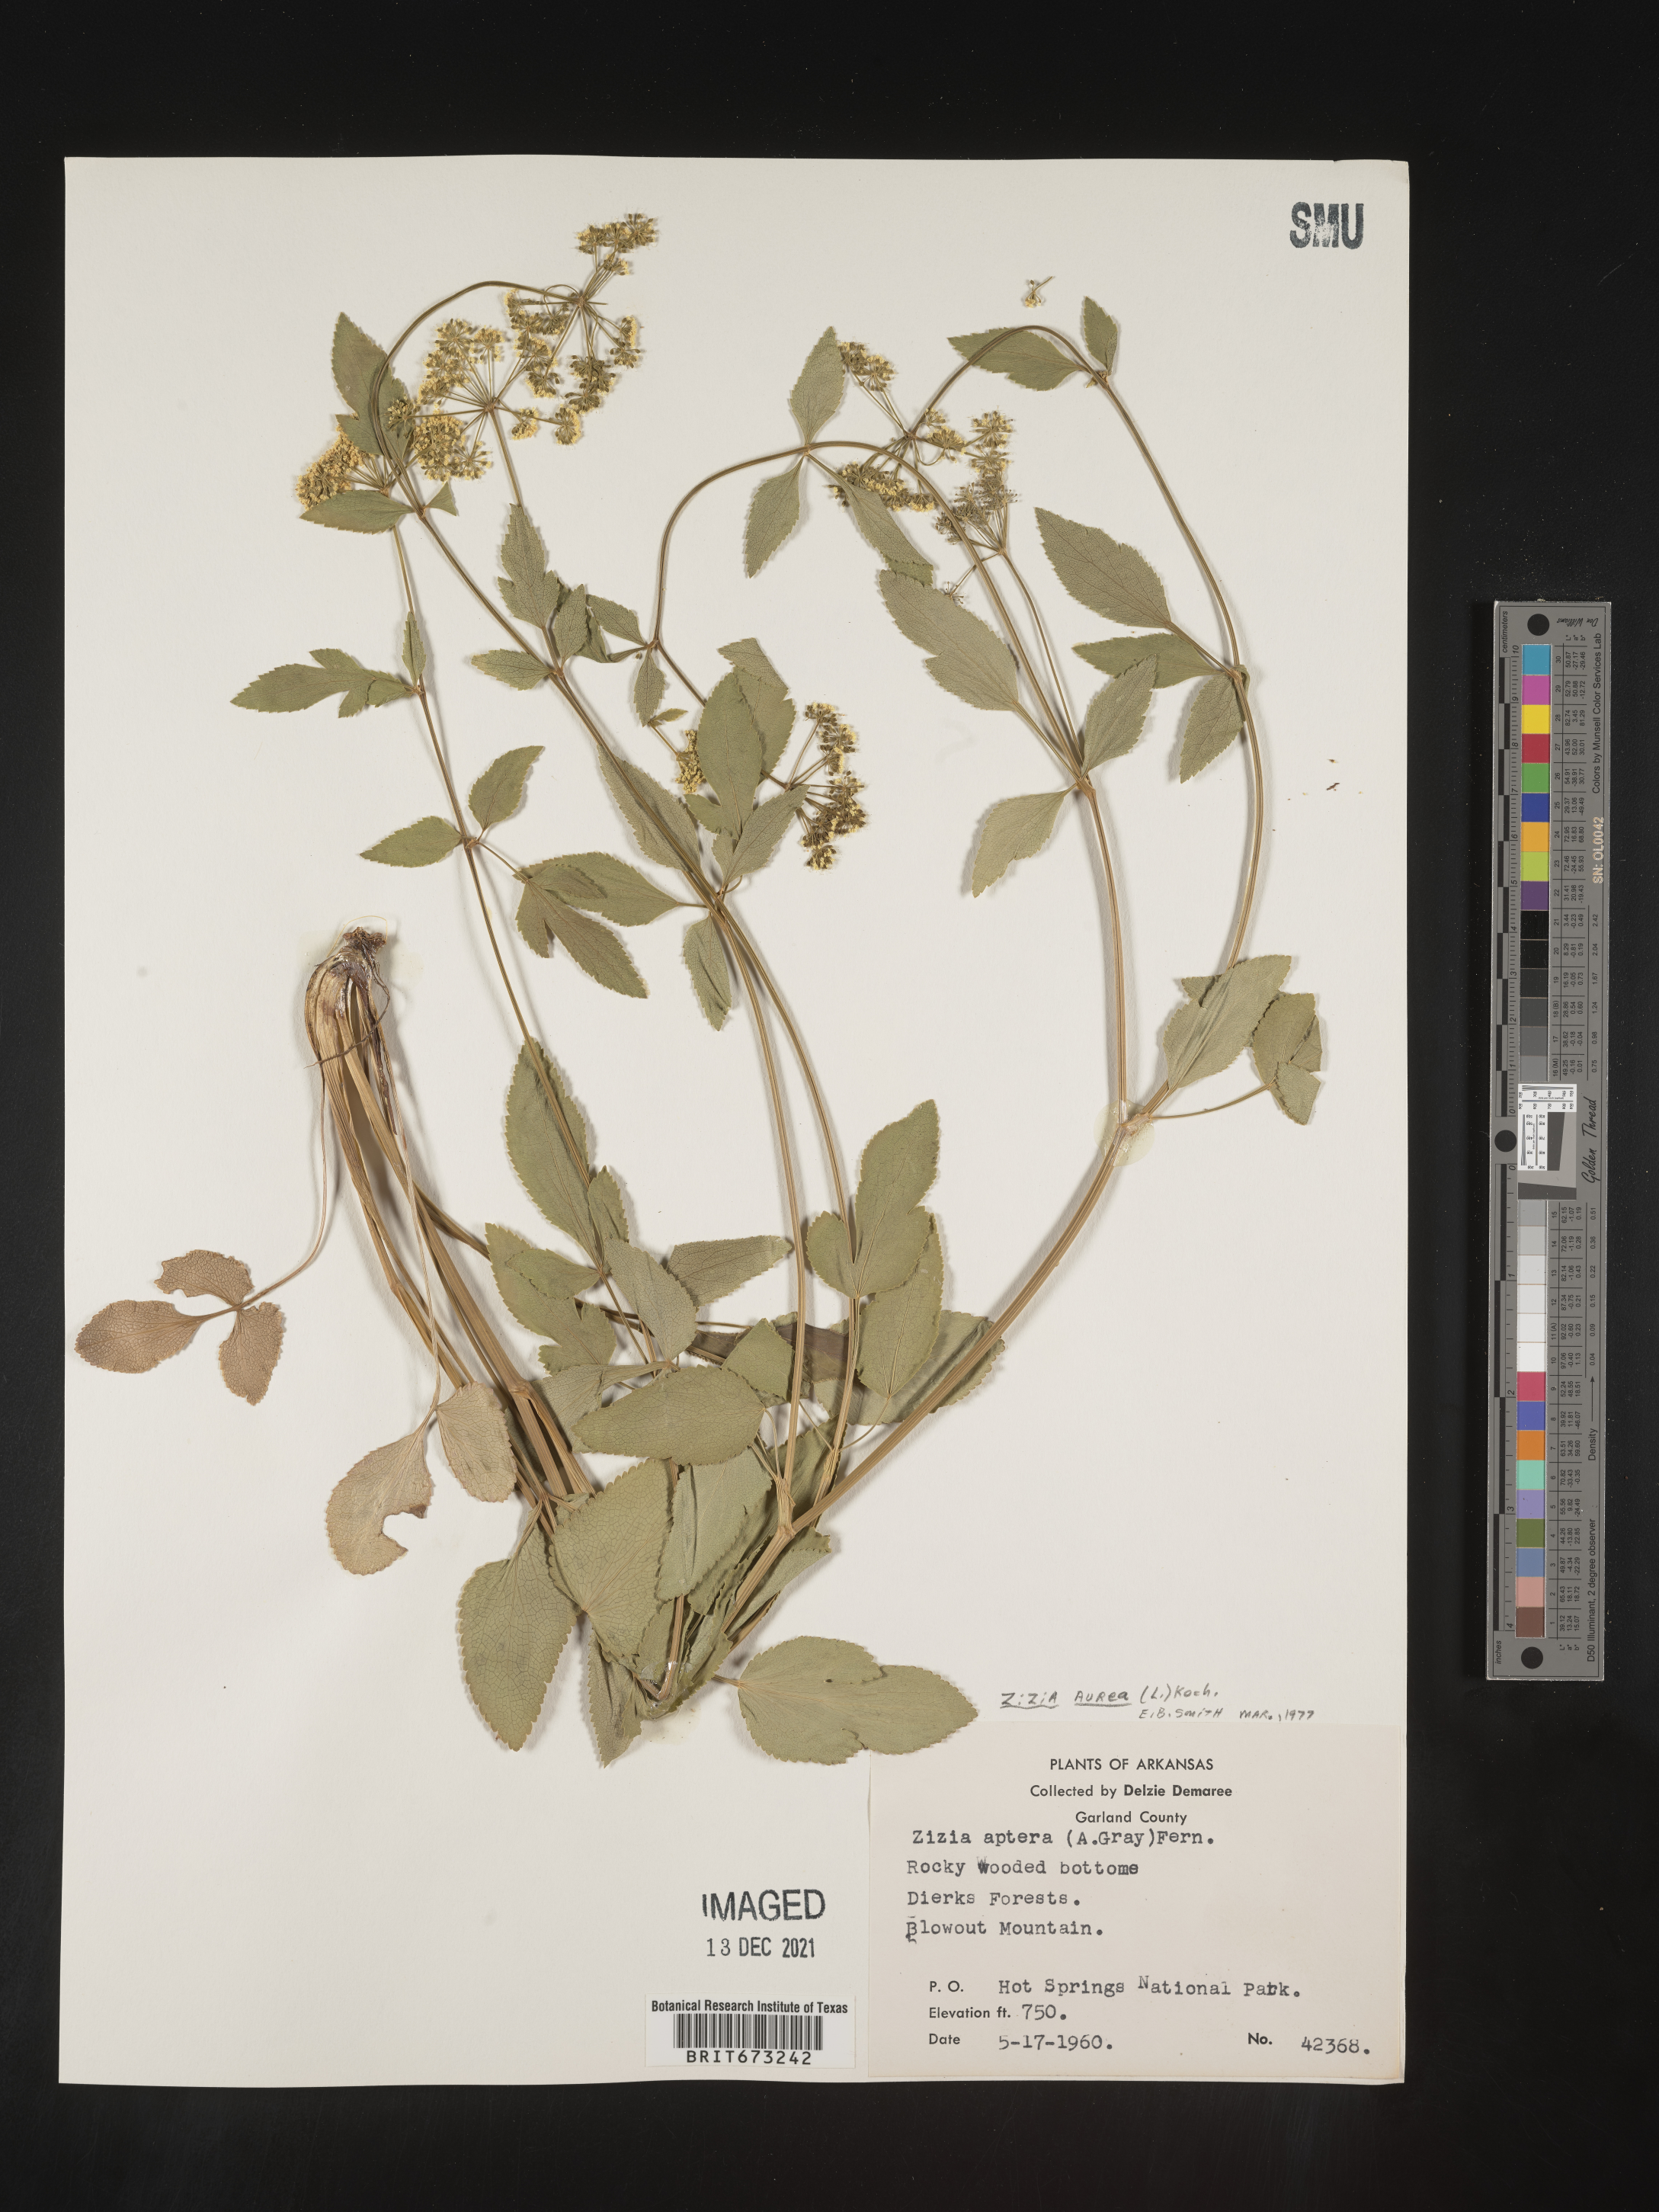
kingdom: Plantae
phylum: Tracheophyta
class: Magnoliopsida
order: Apiales
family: Apiaceae
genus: Zizia
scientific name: Zizia aurea
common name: Golden alexanders
